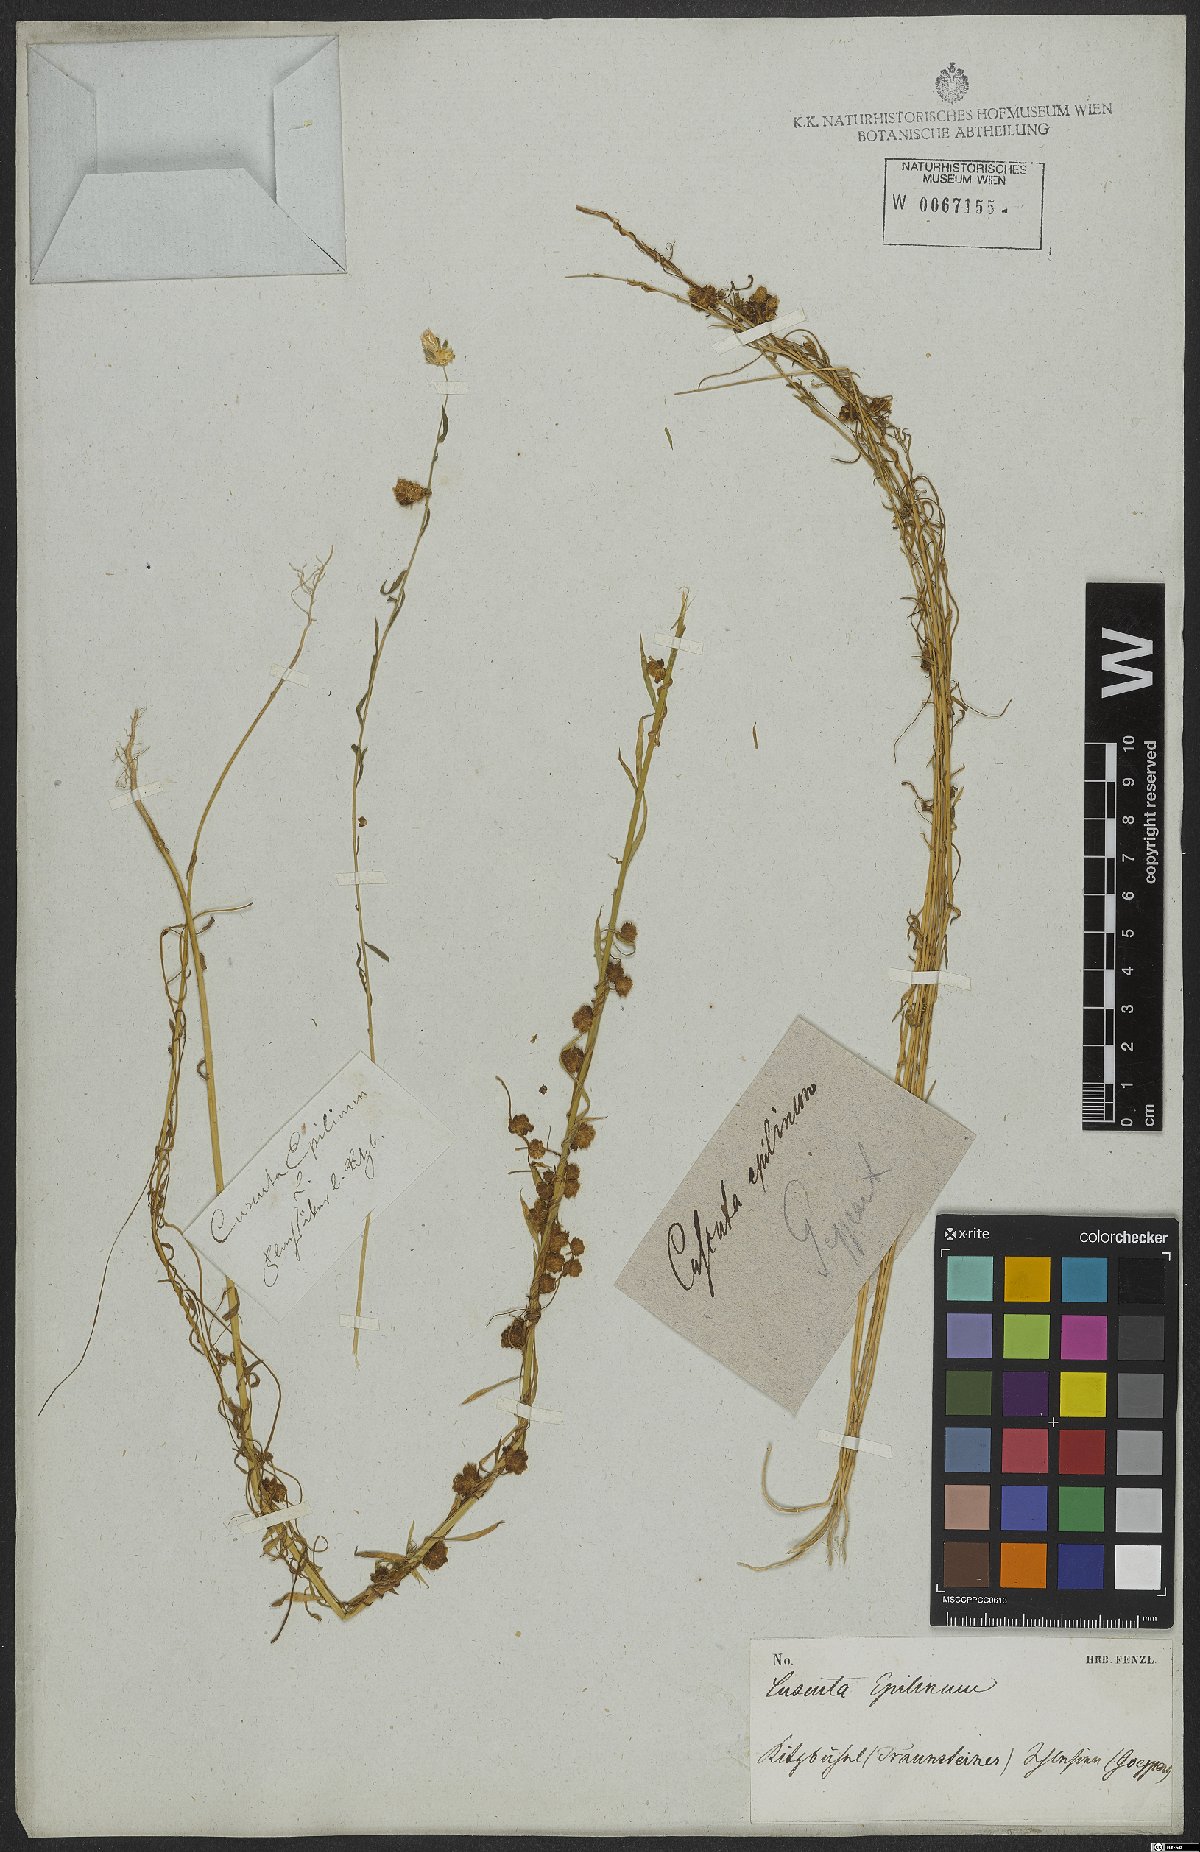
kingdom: Plantae
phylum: Tracheophyta
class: Magnoliopsida
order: Solanales
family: Convolvulaceae
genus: Cuscuta
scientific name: Cuscuta epilinum
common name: Flax dodder
